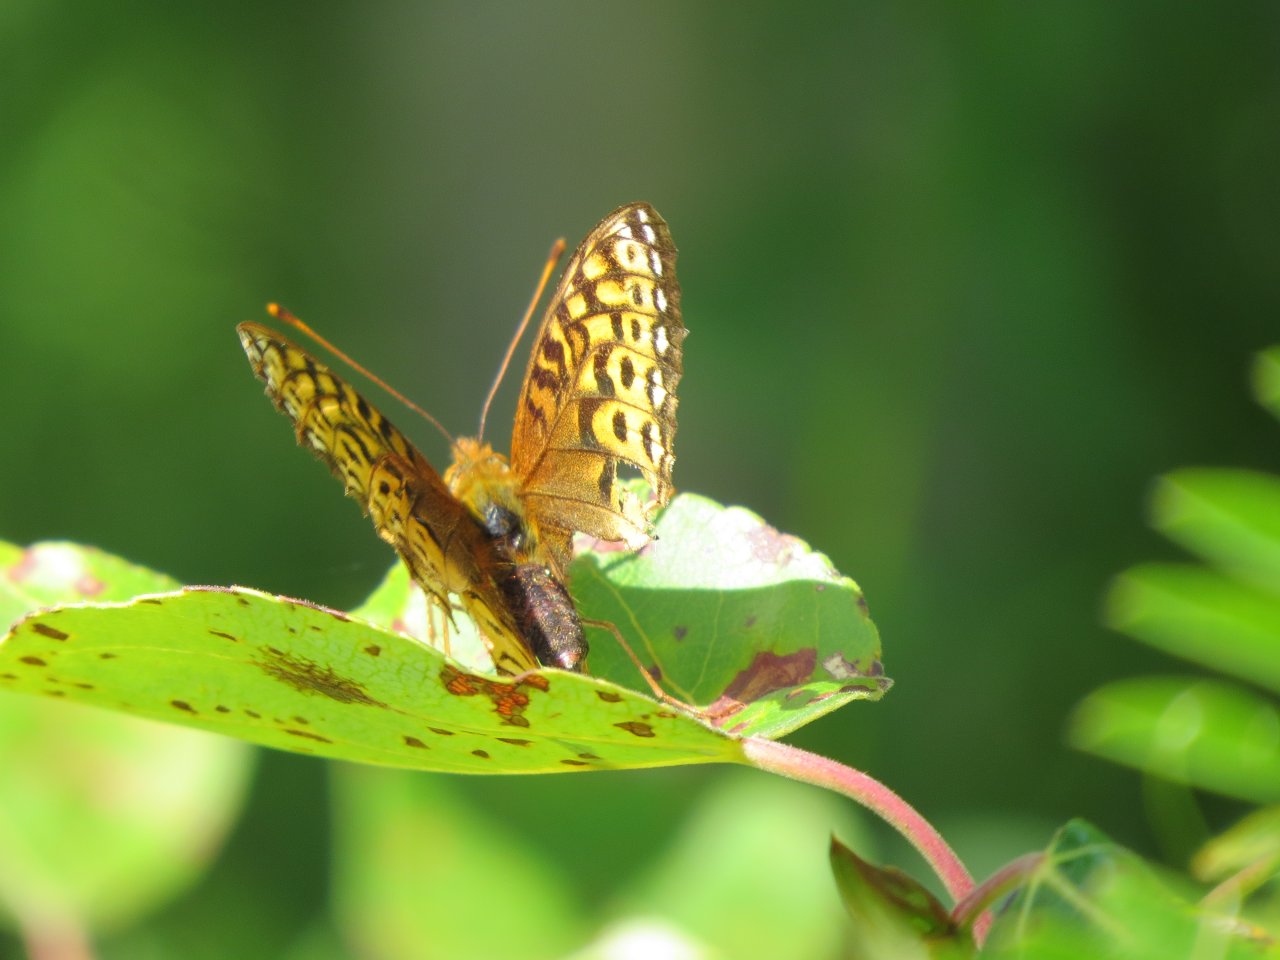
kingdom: Animalia
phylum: Arthropoda
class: Insecta
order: Lepidoptera
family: Nymphalidae
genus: Speyeria
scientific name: Speyeria atlantis
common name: Northwestern Fritillary
